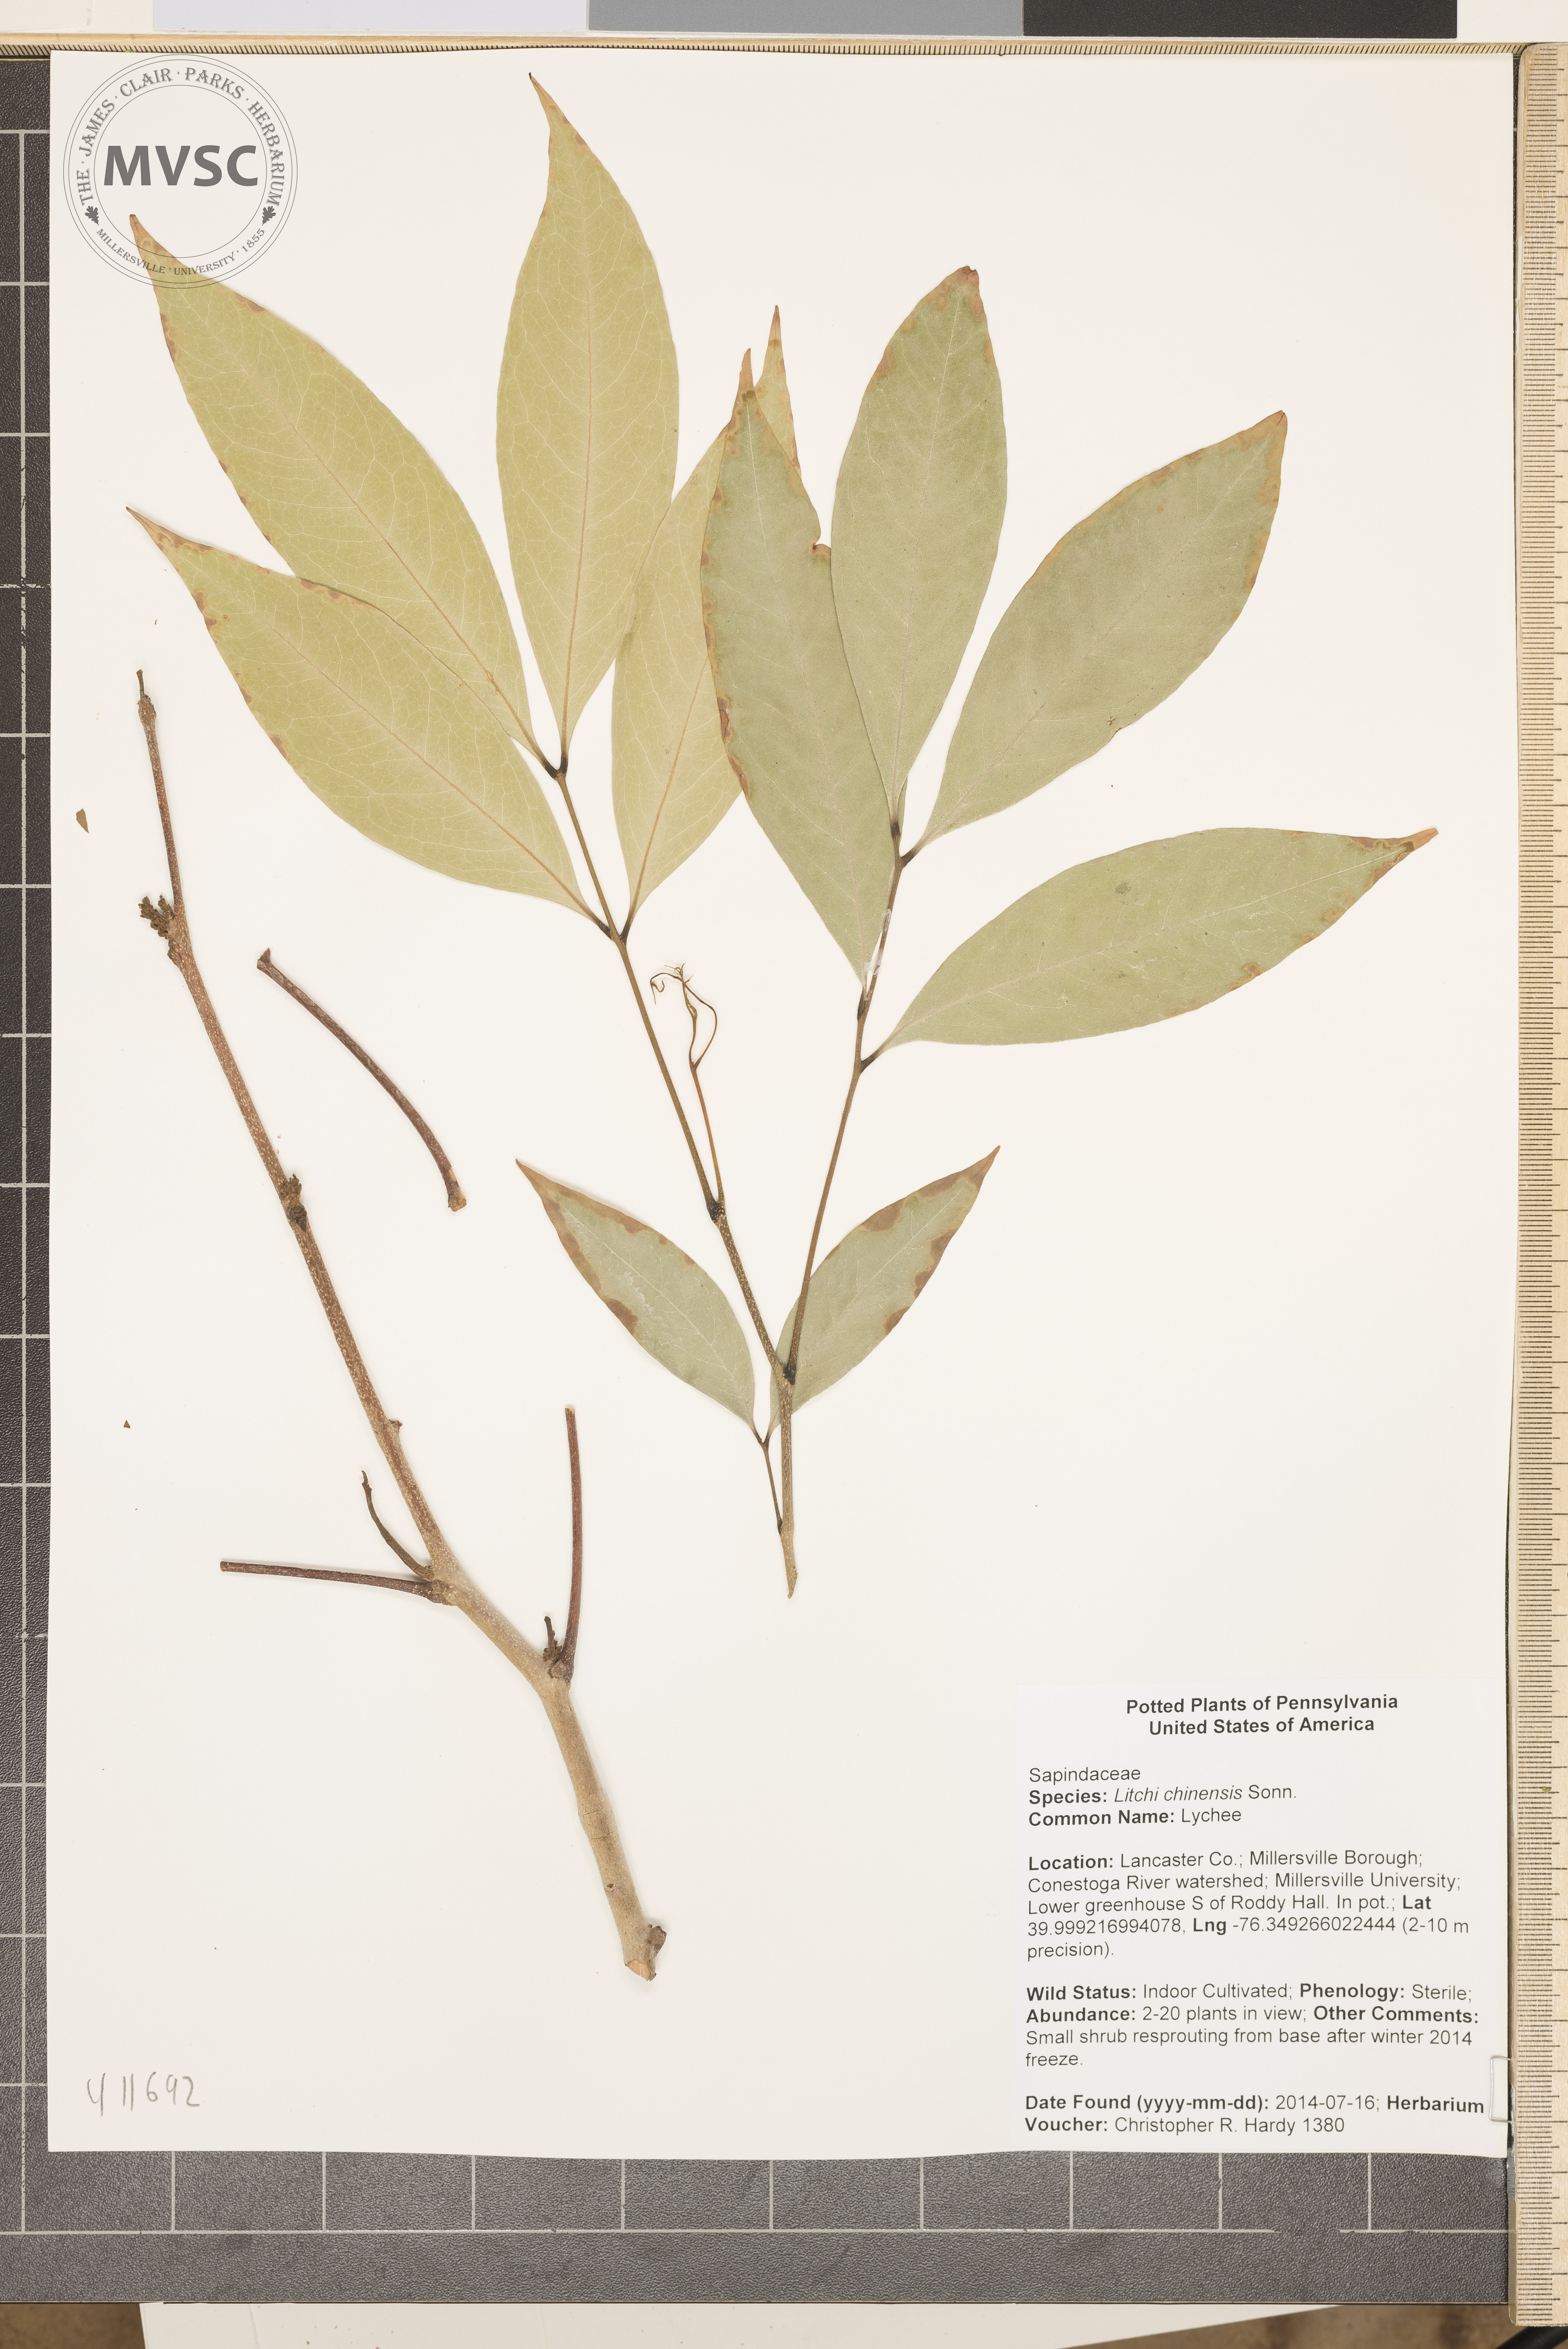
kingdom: Plantae
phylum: Tracheophyta
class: Magnoliopsida
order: Sapindales
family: Sapindaceae
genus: Litchi
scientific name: Litchi chinensis
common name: Lychee
